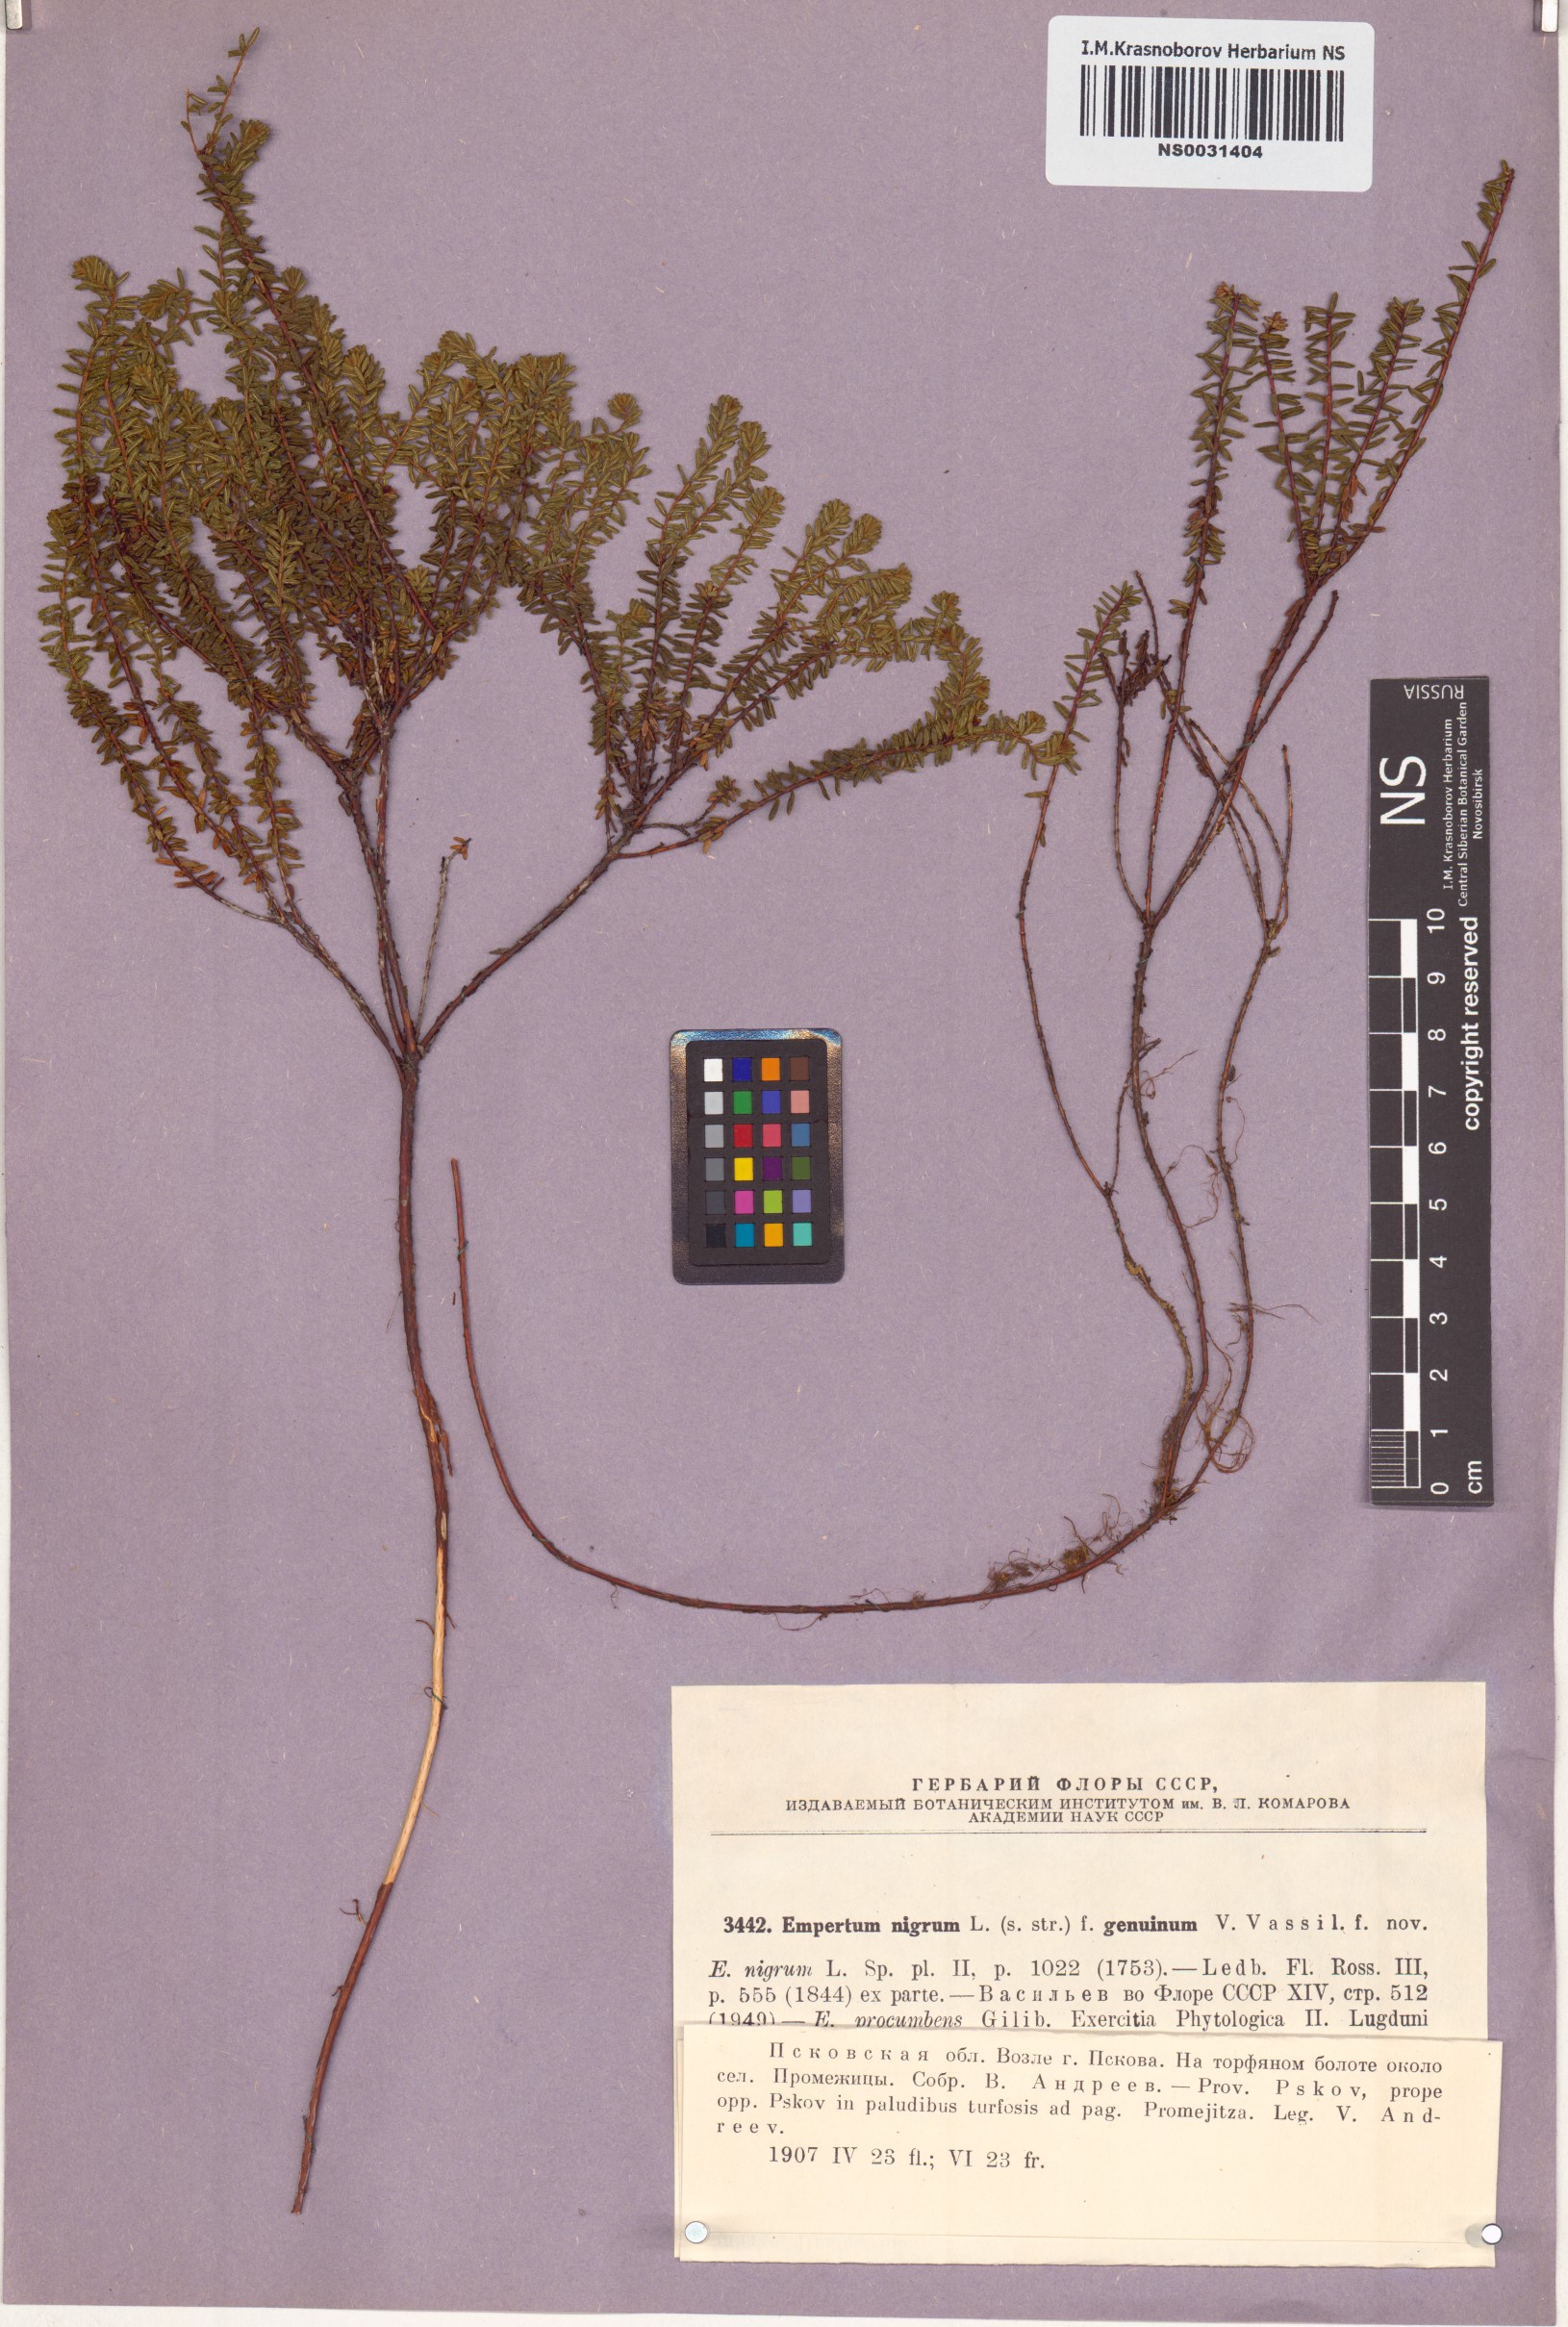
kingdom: Plantae
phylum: Tracheophyta
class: Magnoliopsida
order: Ericales
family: Ericaceae
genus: Empetrum
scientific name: Empetrum nigrum
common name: Black crowberry
